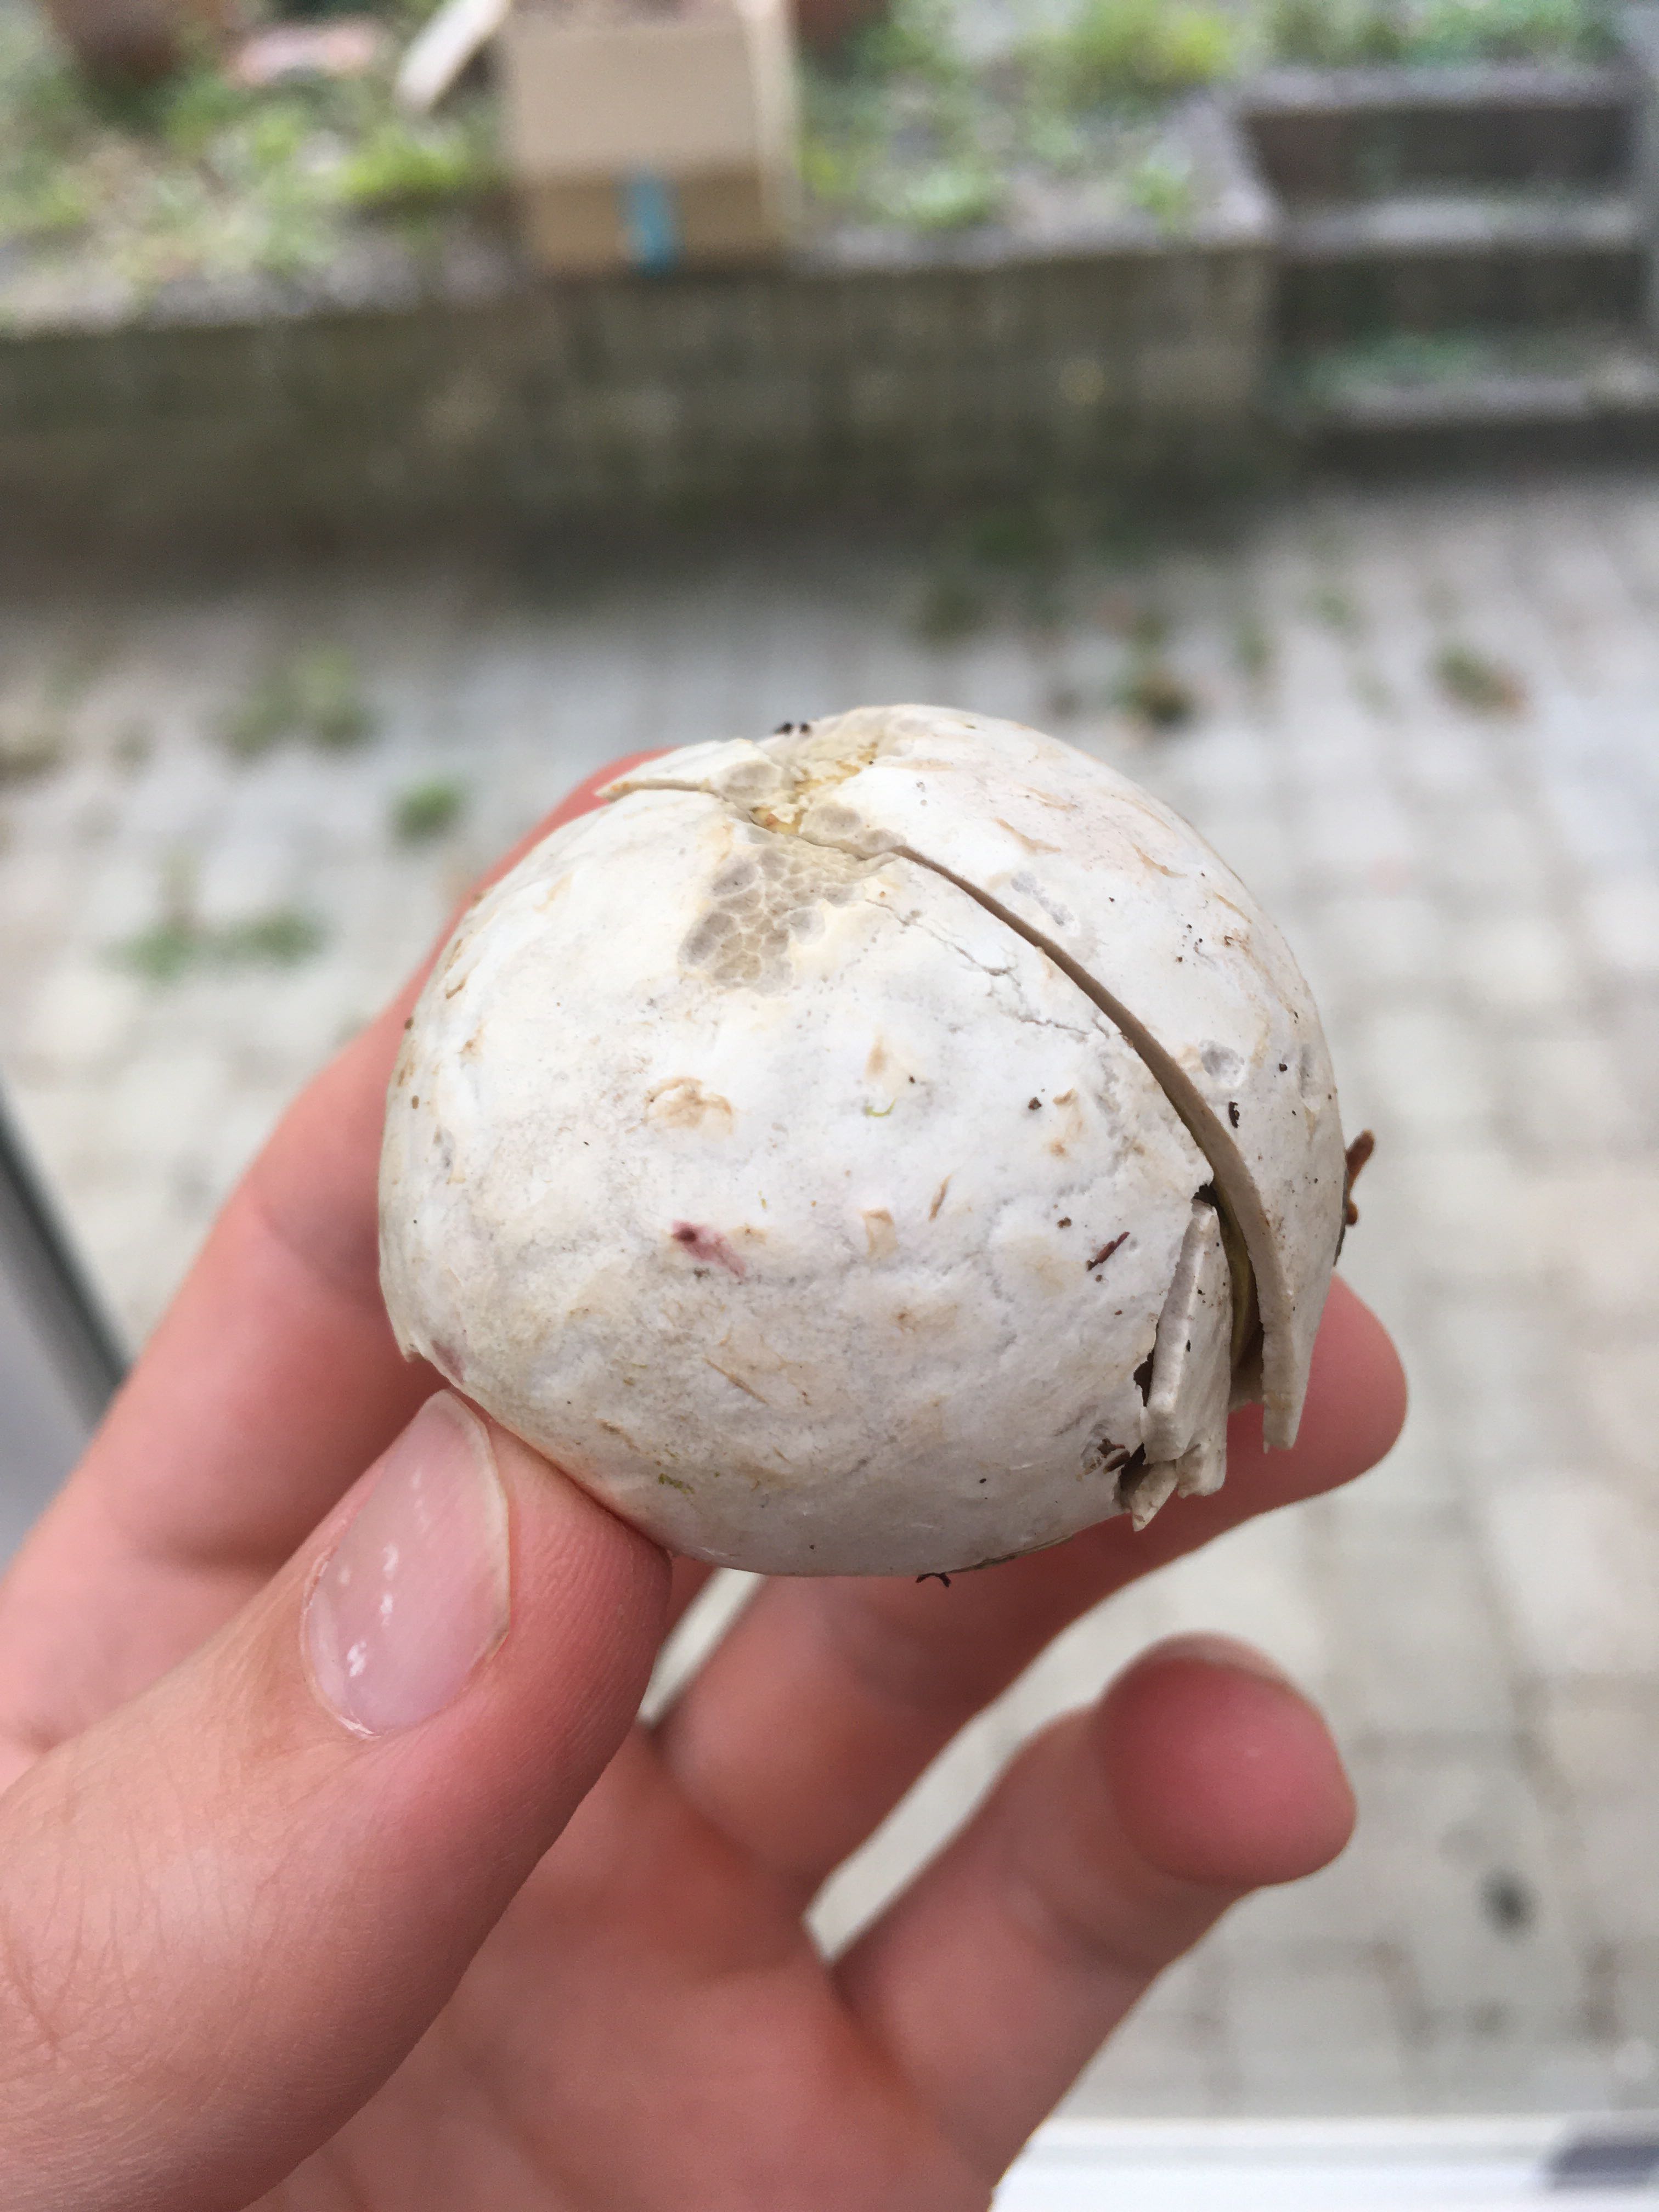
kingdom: Fungi
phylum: Basidiomycota
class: Agaricomycetes
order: Agaricales
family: Lycoperdaceae
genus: Bovista
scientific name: Bovista
